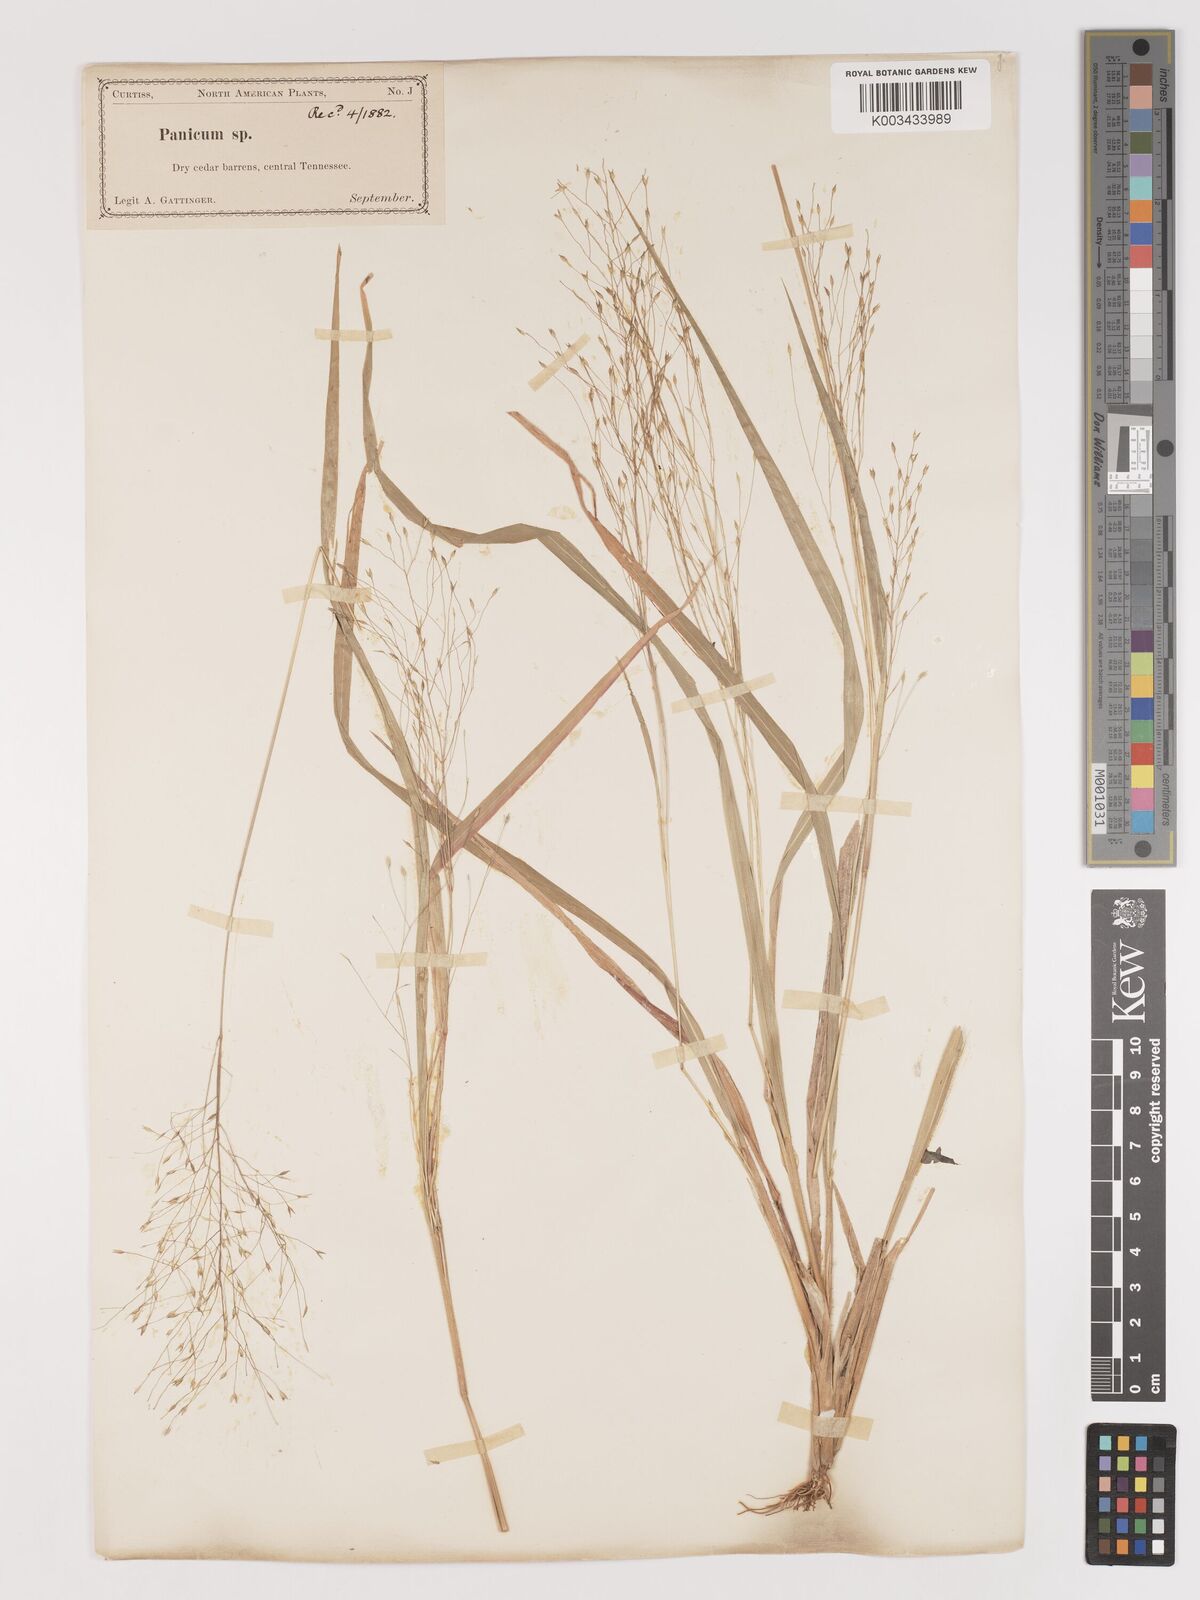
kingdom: Plantae
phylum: Tracheophyta
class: Liliopsida
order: Poales
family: Poaceae
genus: Digitaria
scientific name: Digitaria
